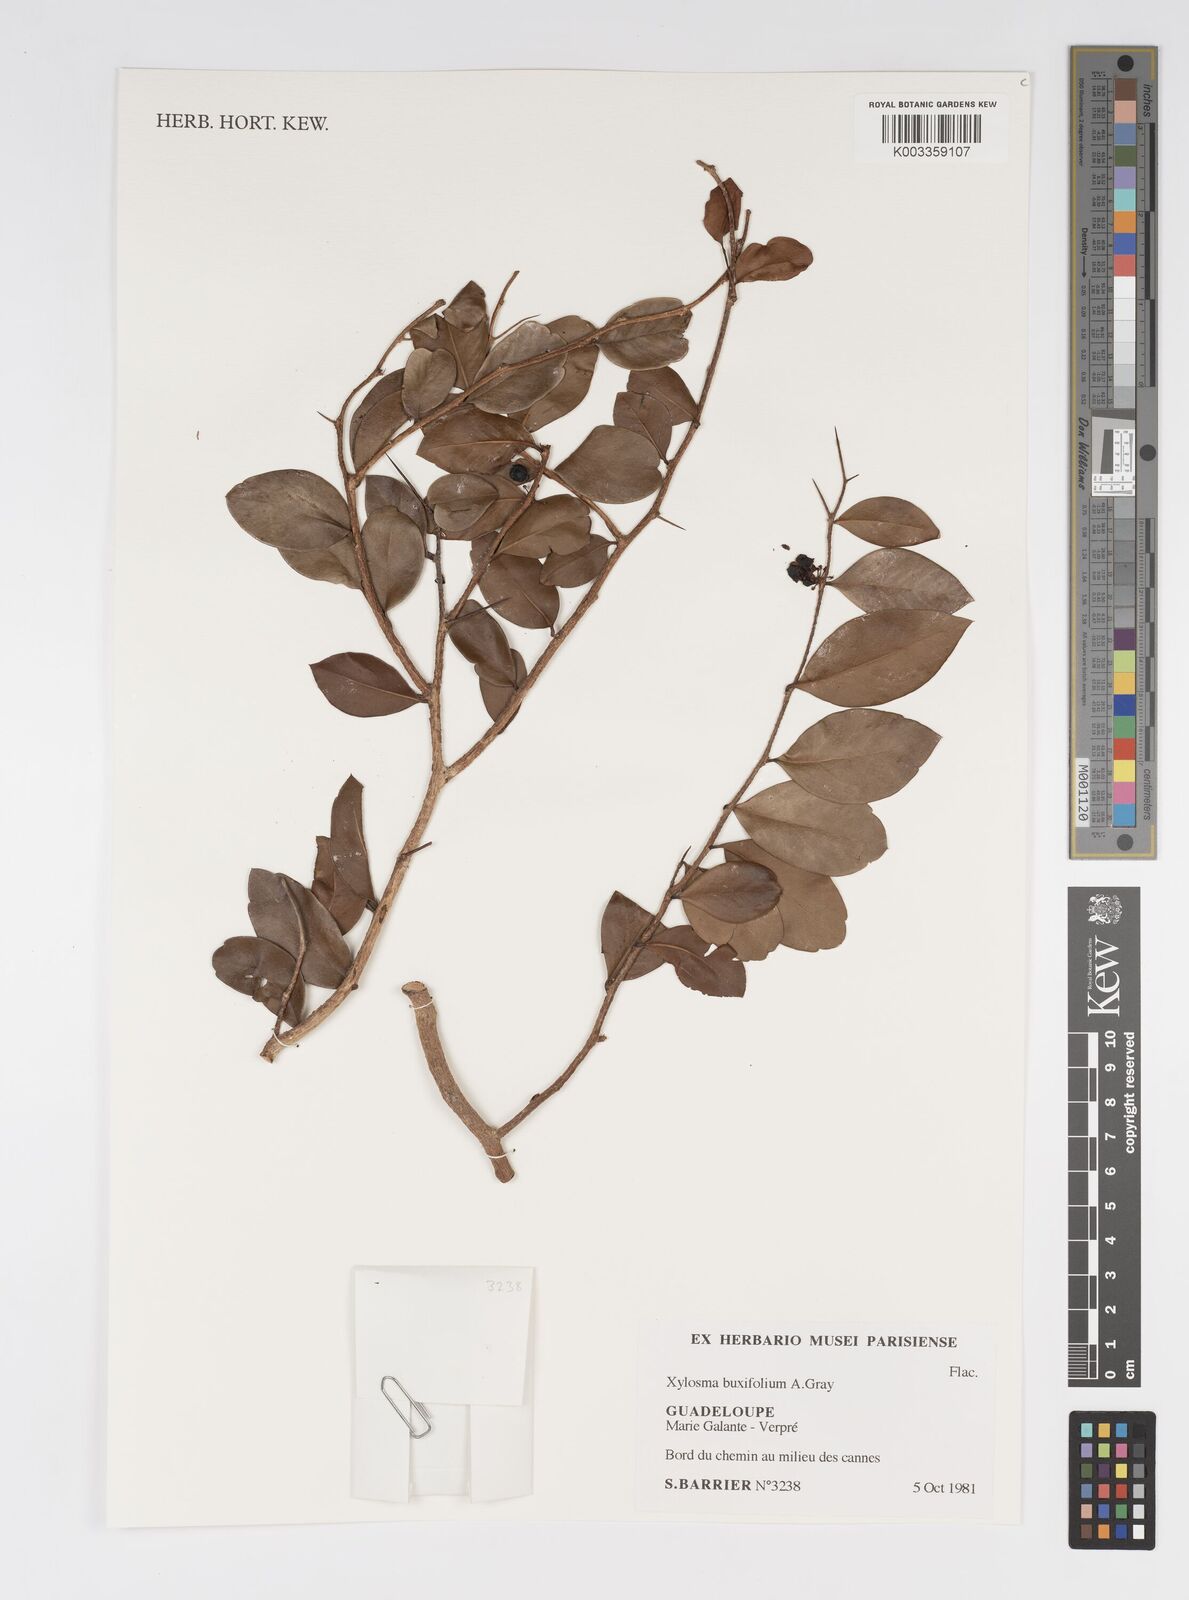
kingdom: Plantae
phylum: Tracheophyta
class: Magnoliopsida
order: Malpighiales
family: Salicaceae
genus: Xylosma
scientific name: Xylosma buxifolia
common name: Cockspur
